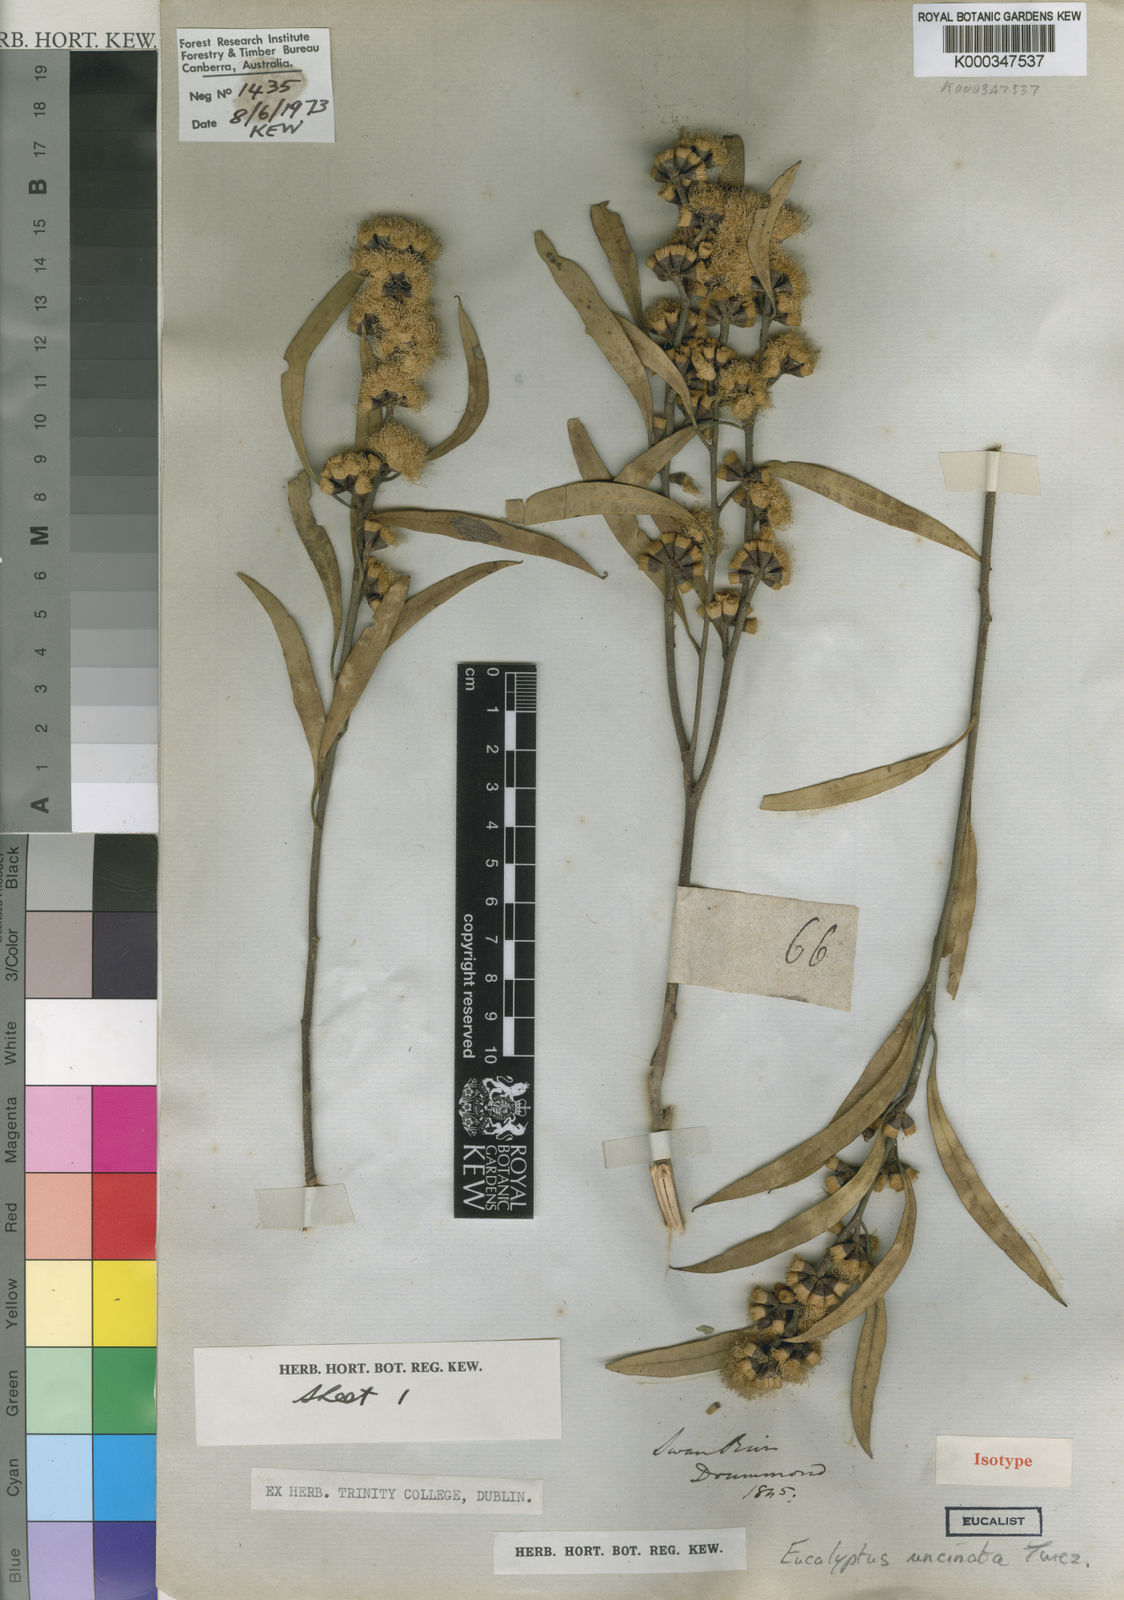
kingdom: Plantae
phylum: Tracheophyta
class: Magnoliopsida
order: Myrtales
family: Myrtaceae
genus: Eucalyptus
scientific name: Eucalyptus uncinata
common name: Hooked-leaved mallee
